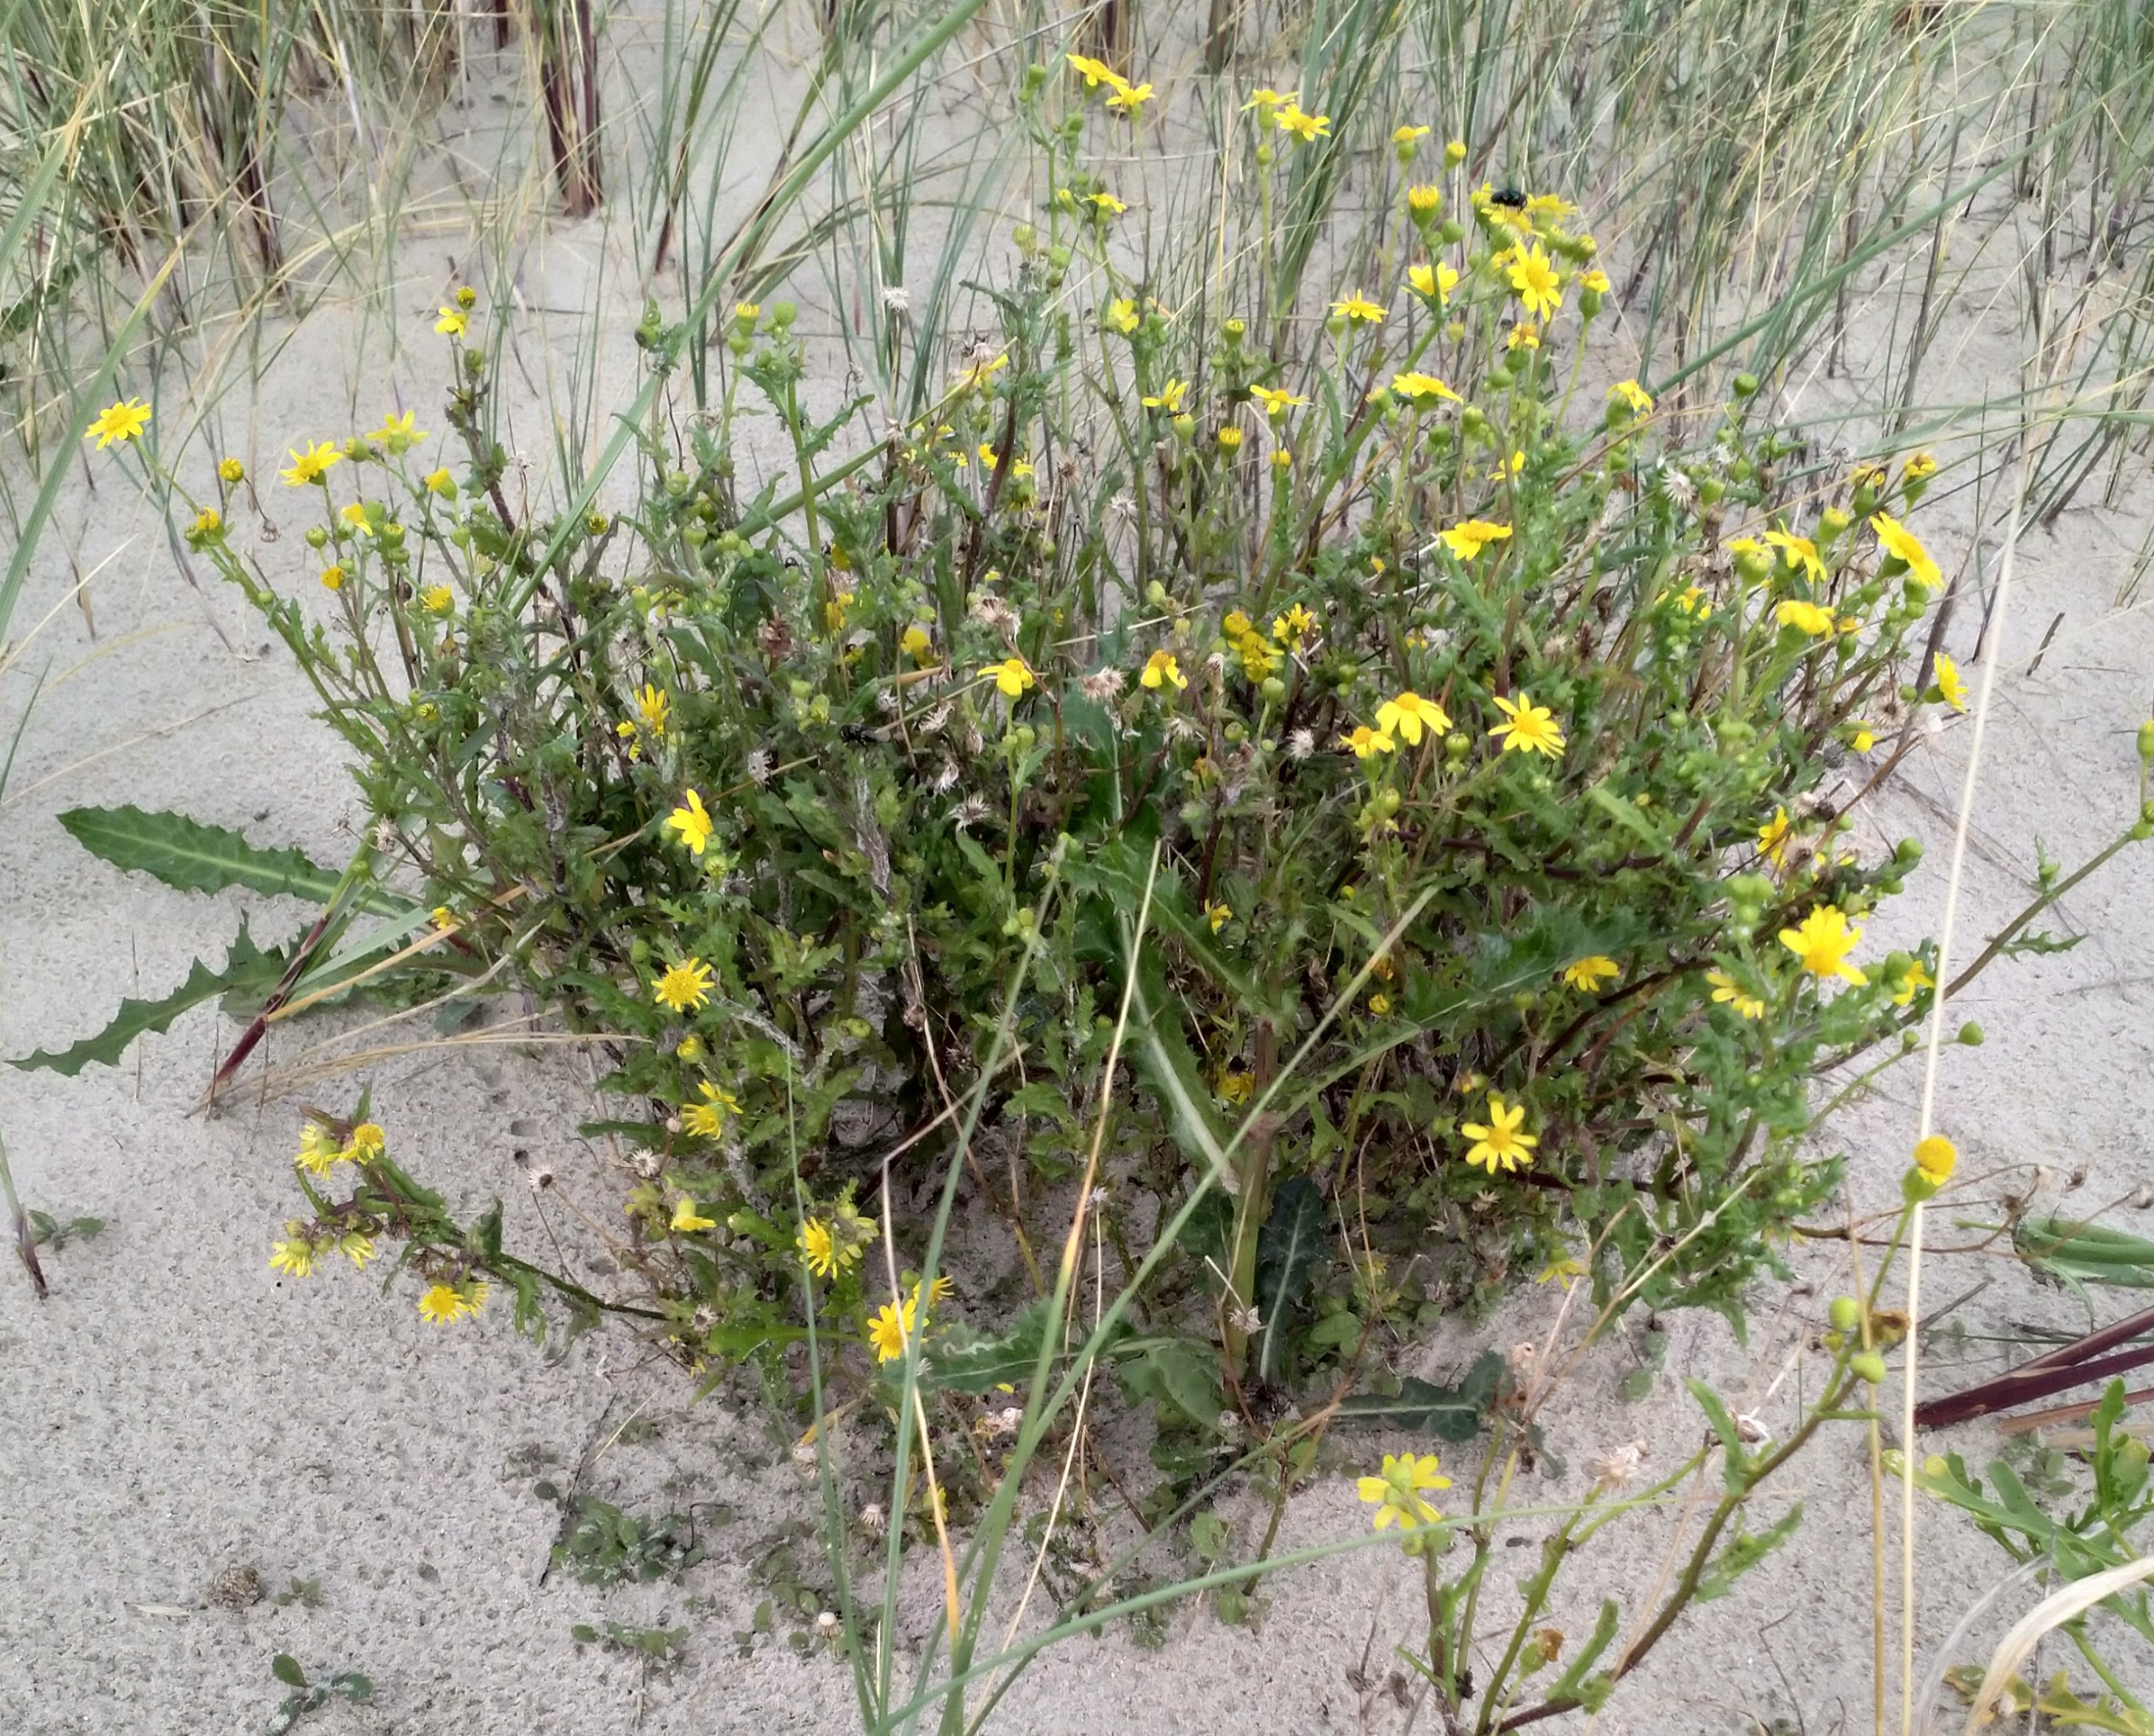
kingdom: Plantae
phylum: Tracheophyta
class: Magnoliopsida
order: Asterales
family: Asteraceae
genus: Senecio
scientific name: Senecio leucanthemifolius
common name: Vår-brandbæger
